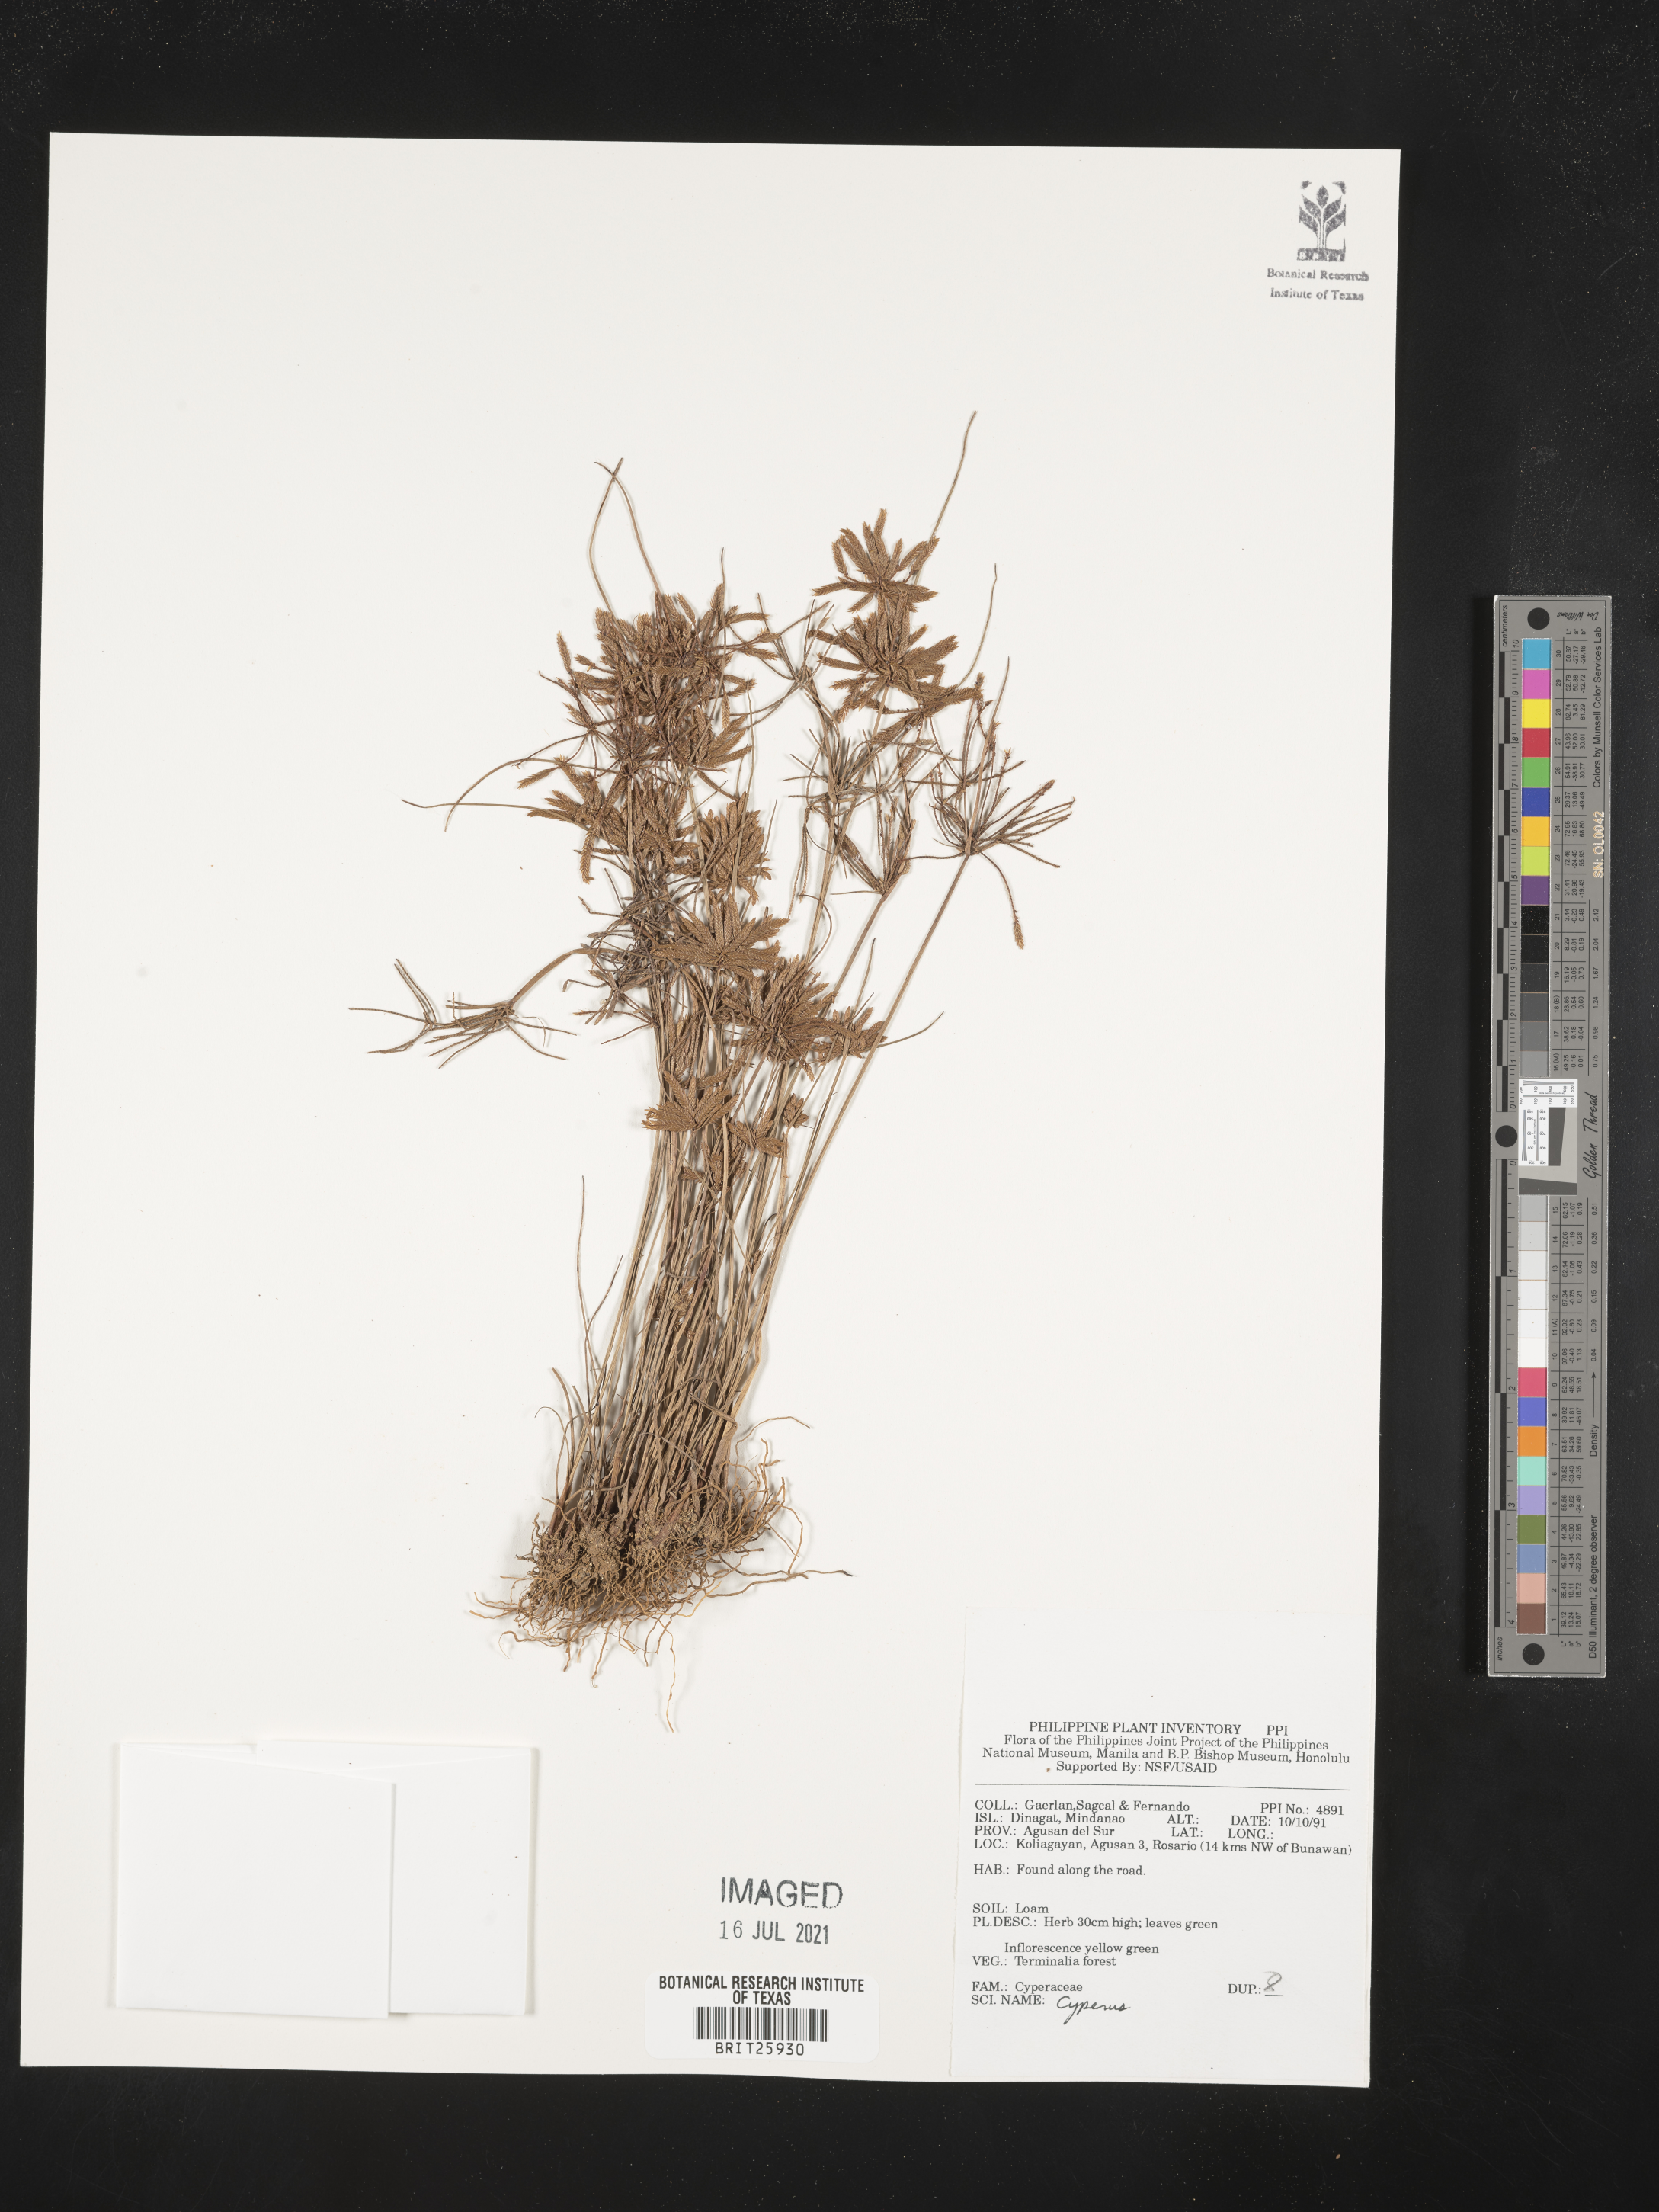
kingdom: Plantae
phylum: Tracheophyta
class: Liliopsida
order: Poales
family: Cyperaceae
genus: Cyperus
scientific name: Cyperus
